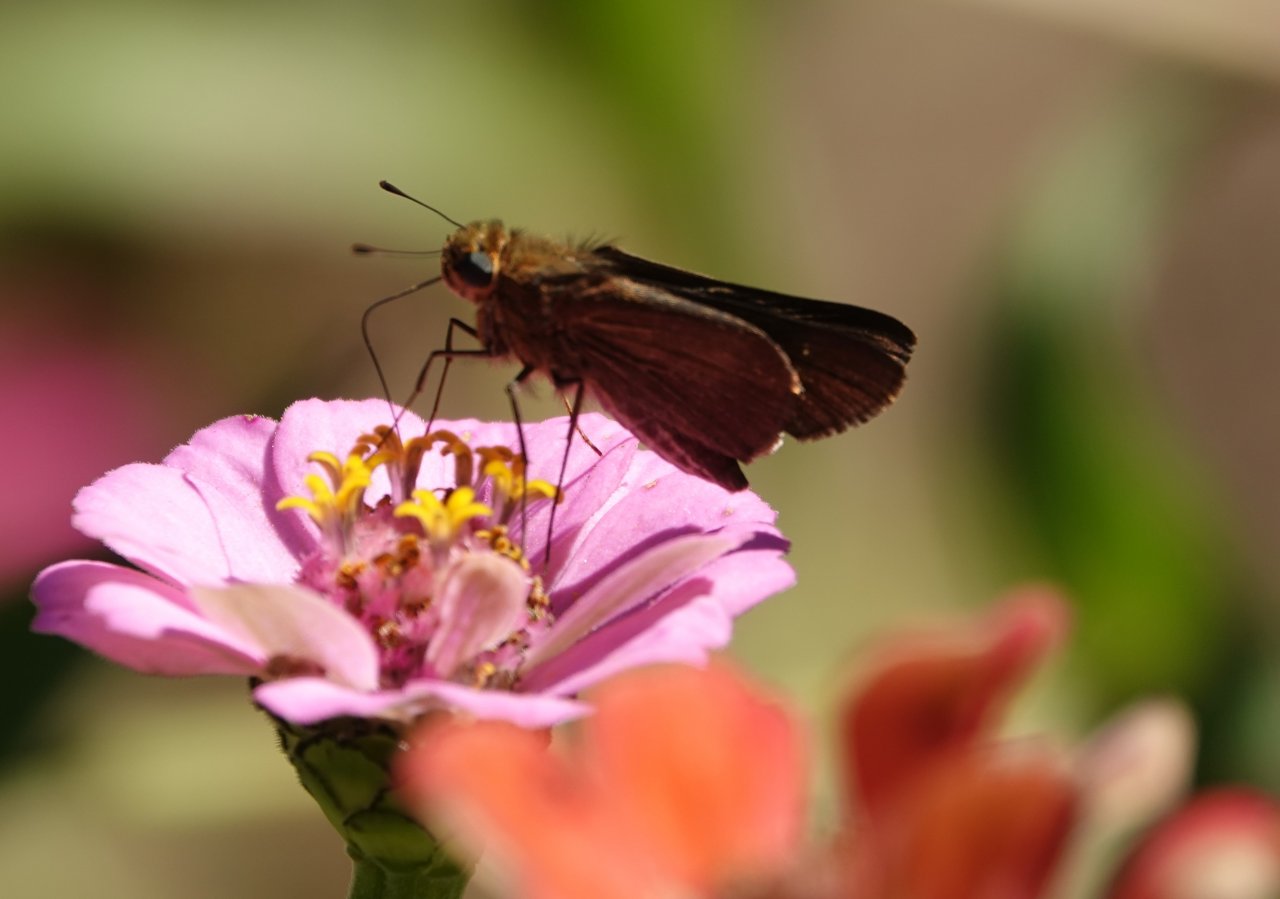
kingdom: Animalia
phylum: Arthropoda
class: Insecta
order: Lepidoptera
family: Hesperiidae
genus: Panoquina
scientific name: Panoquina ocola
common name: Ocola Skipper
